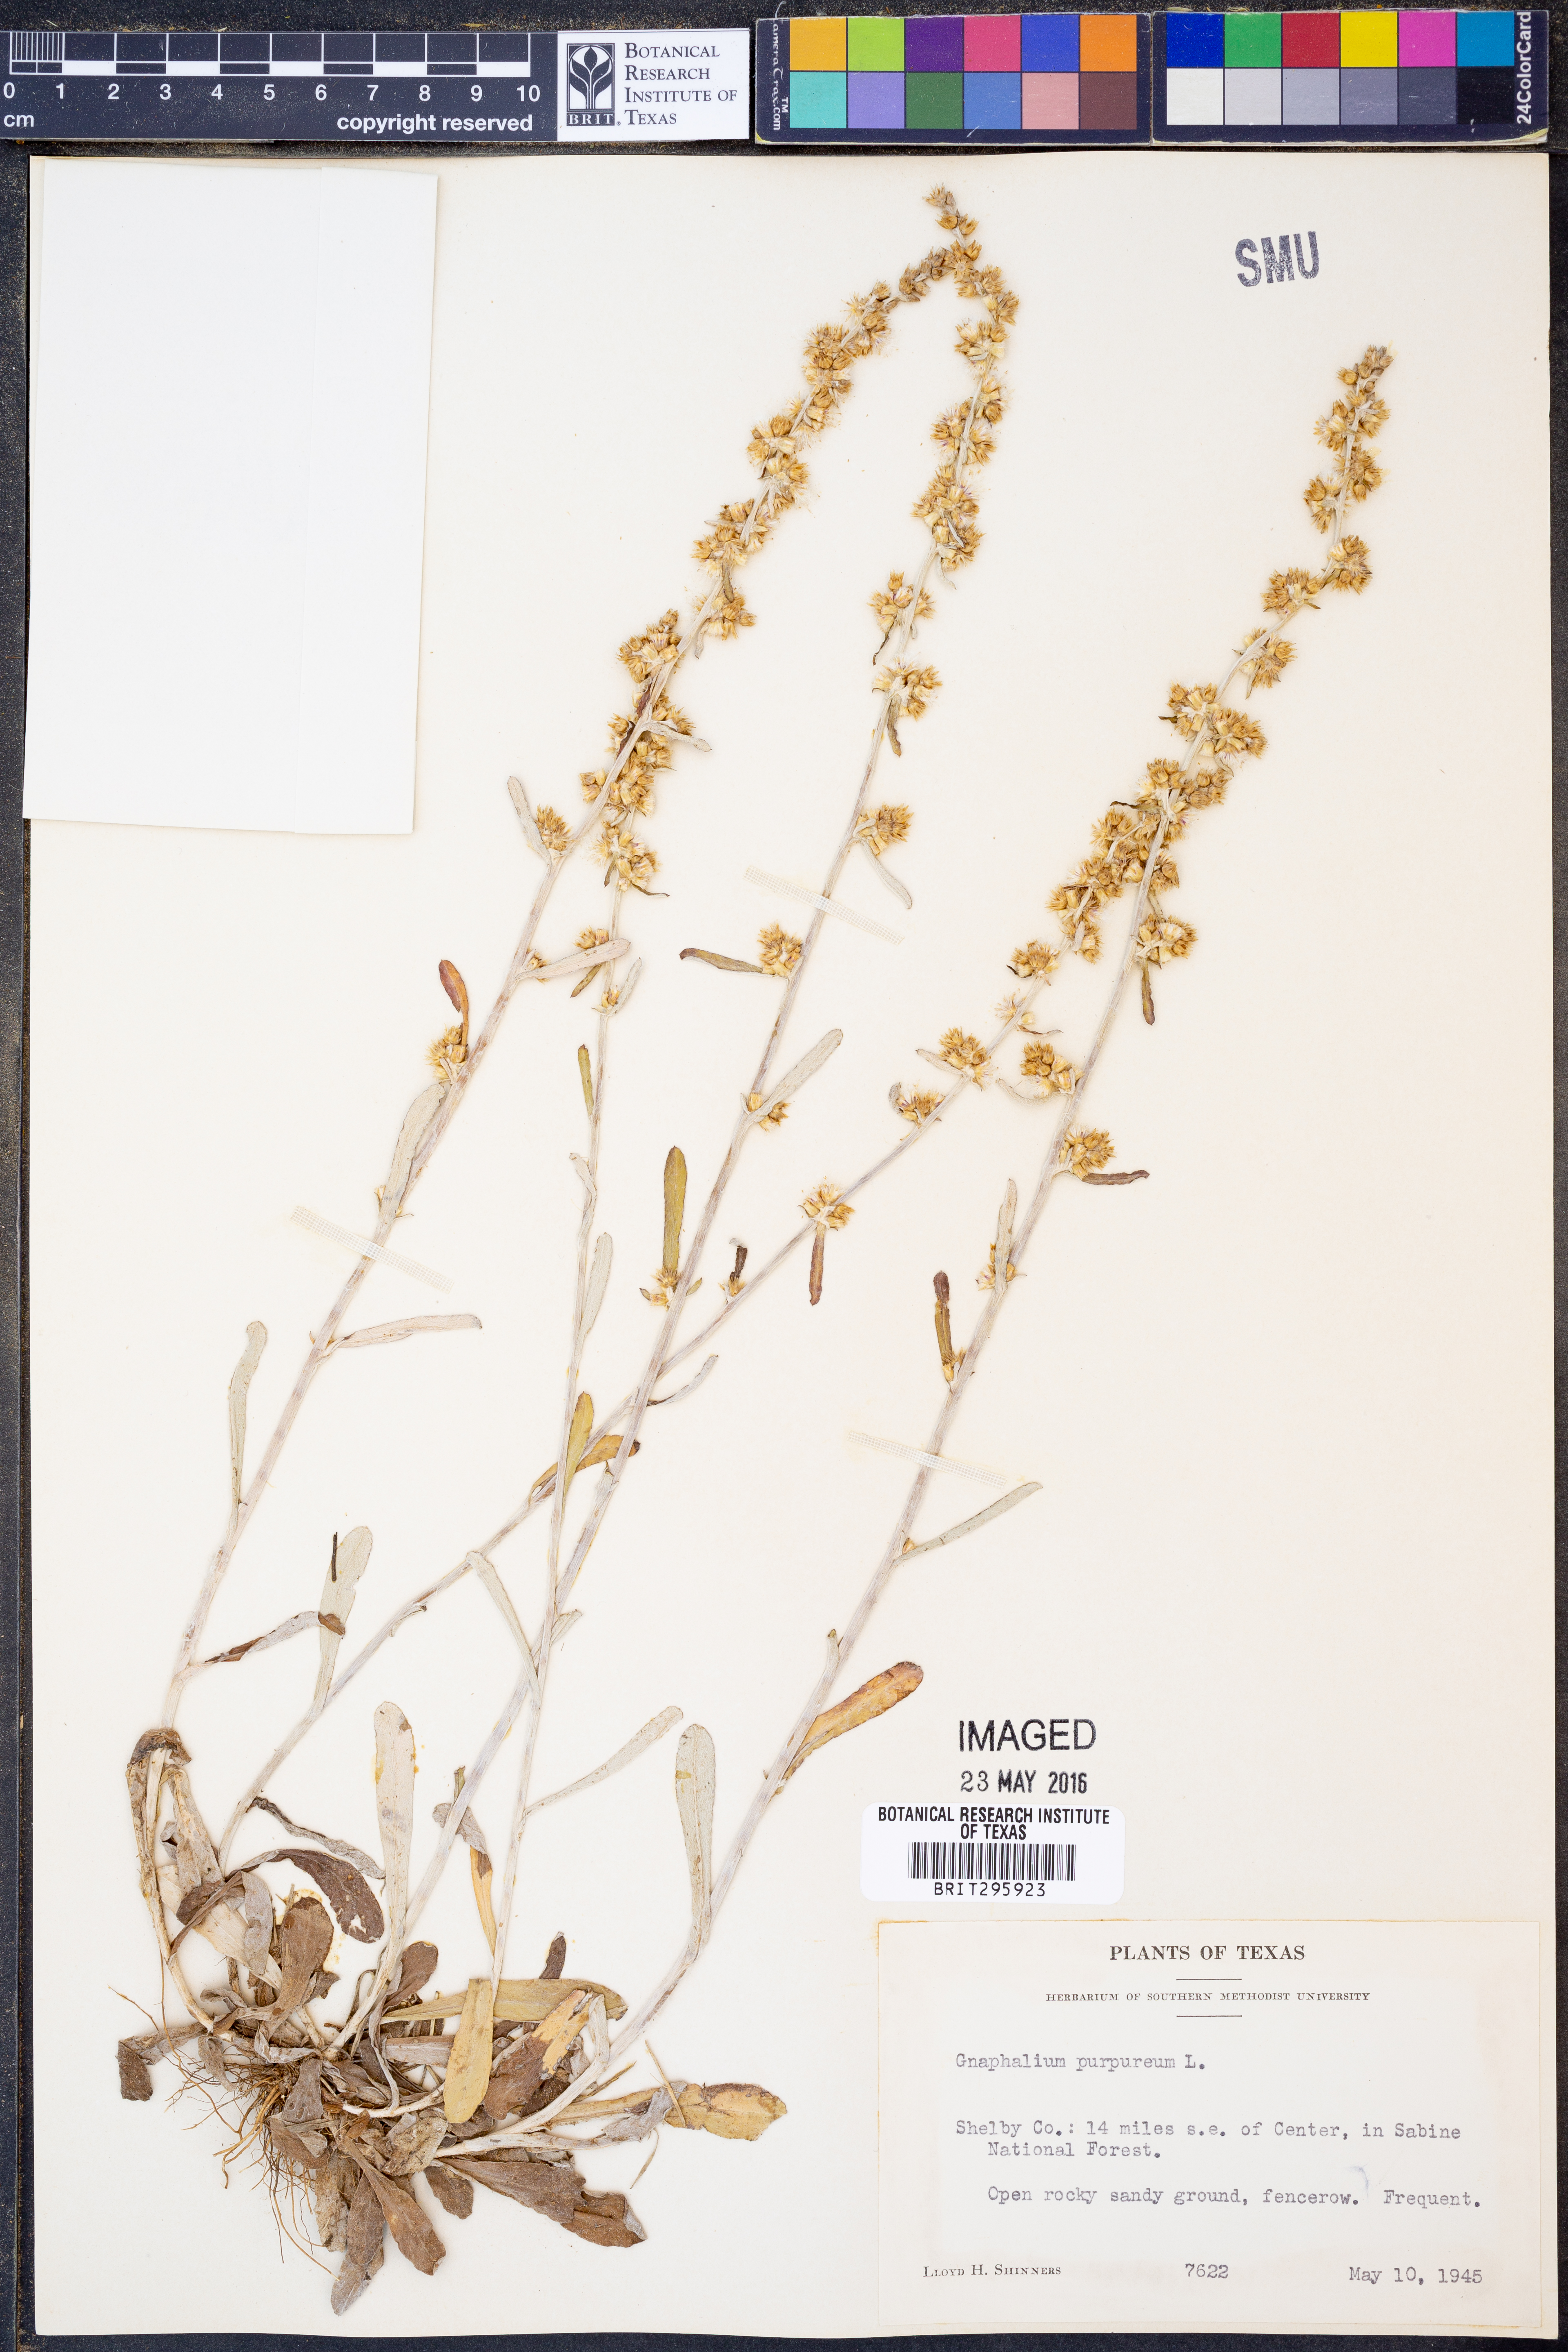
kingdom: Plantae
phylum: Tracheophyta
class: Magnoliopsida
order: Asterales
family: Asteraceae
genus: Gamochaeta
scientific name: Gamochaeta purpurea
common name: Purple cudweed
